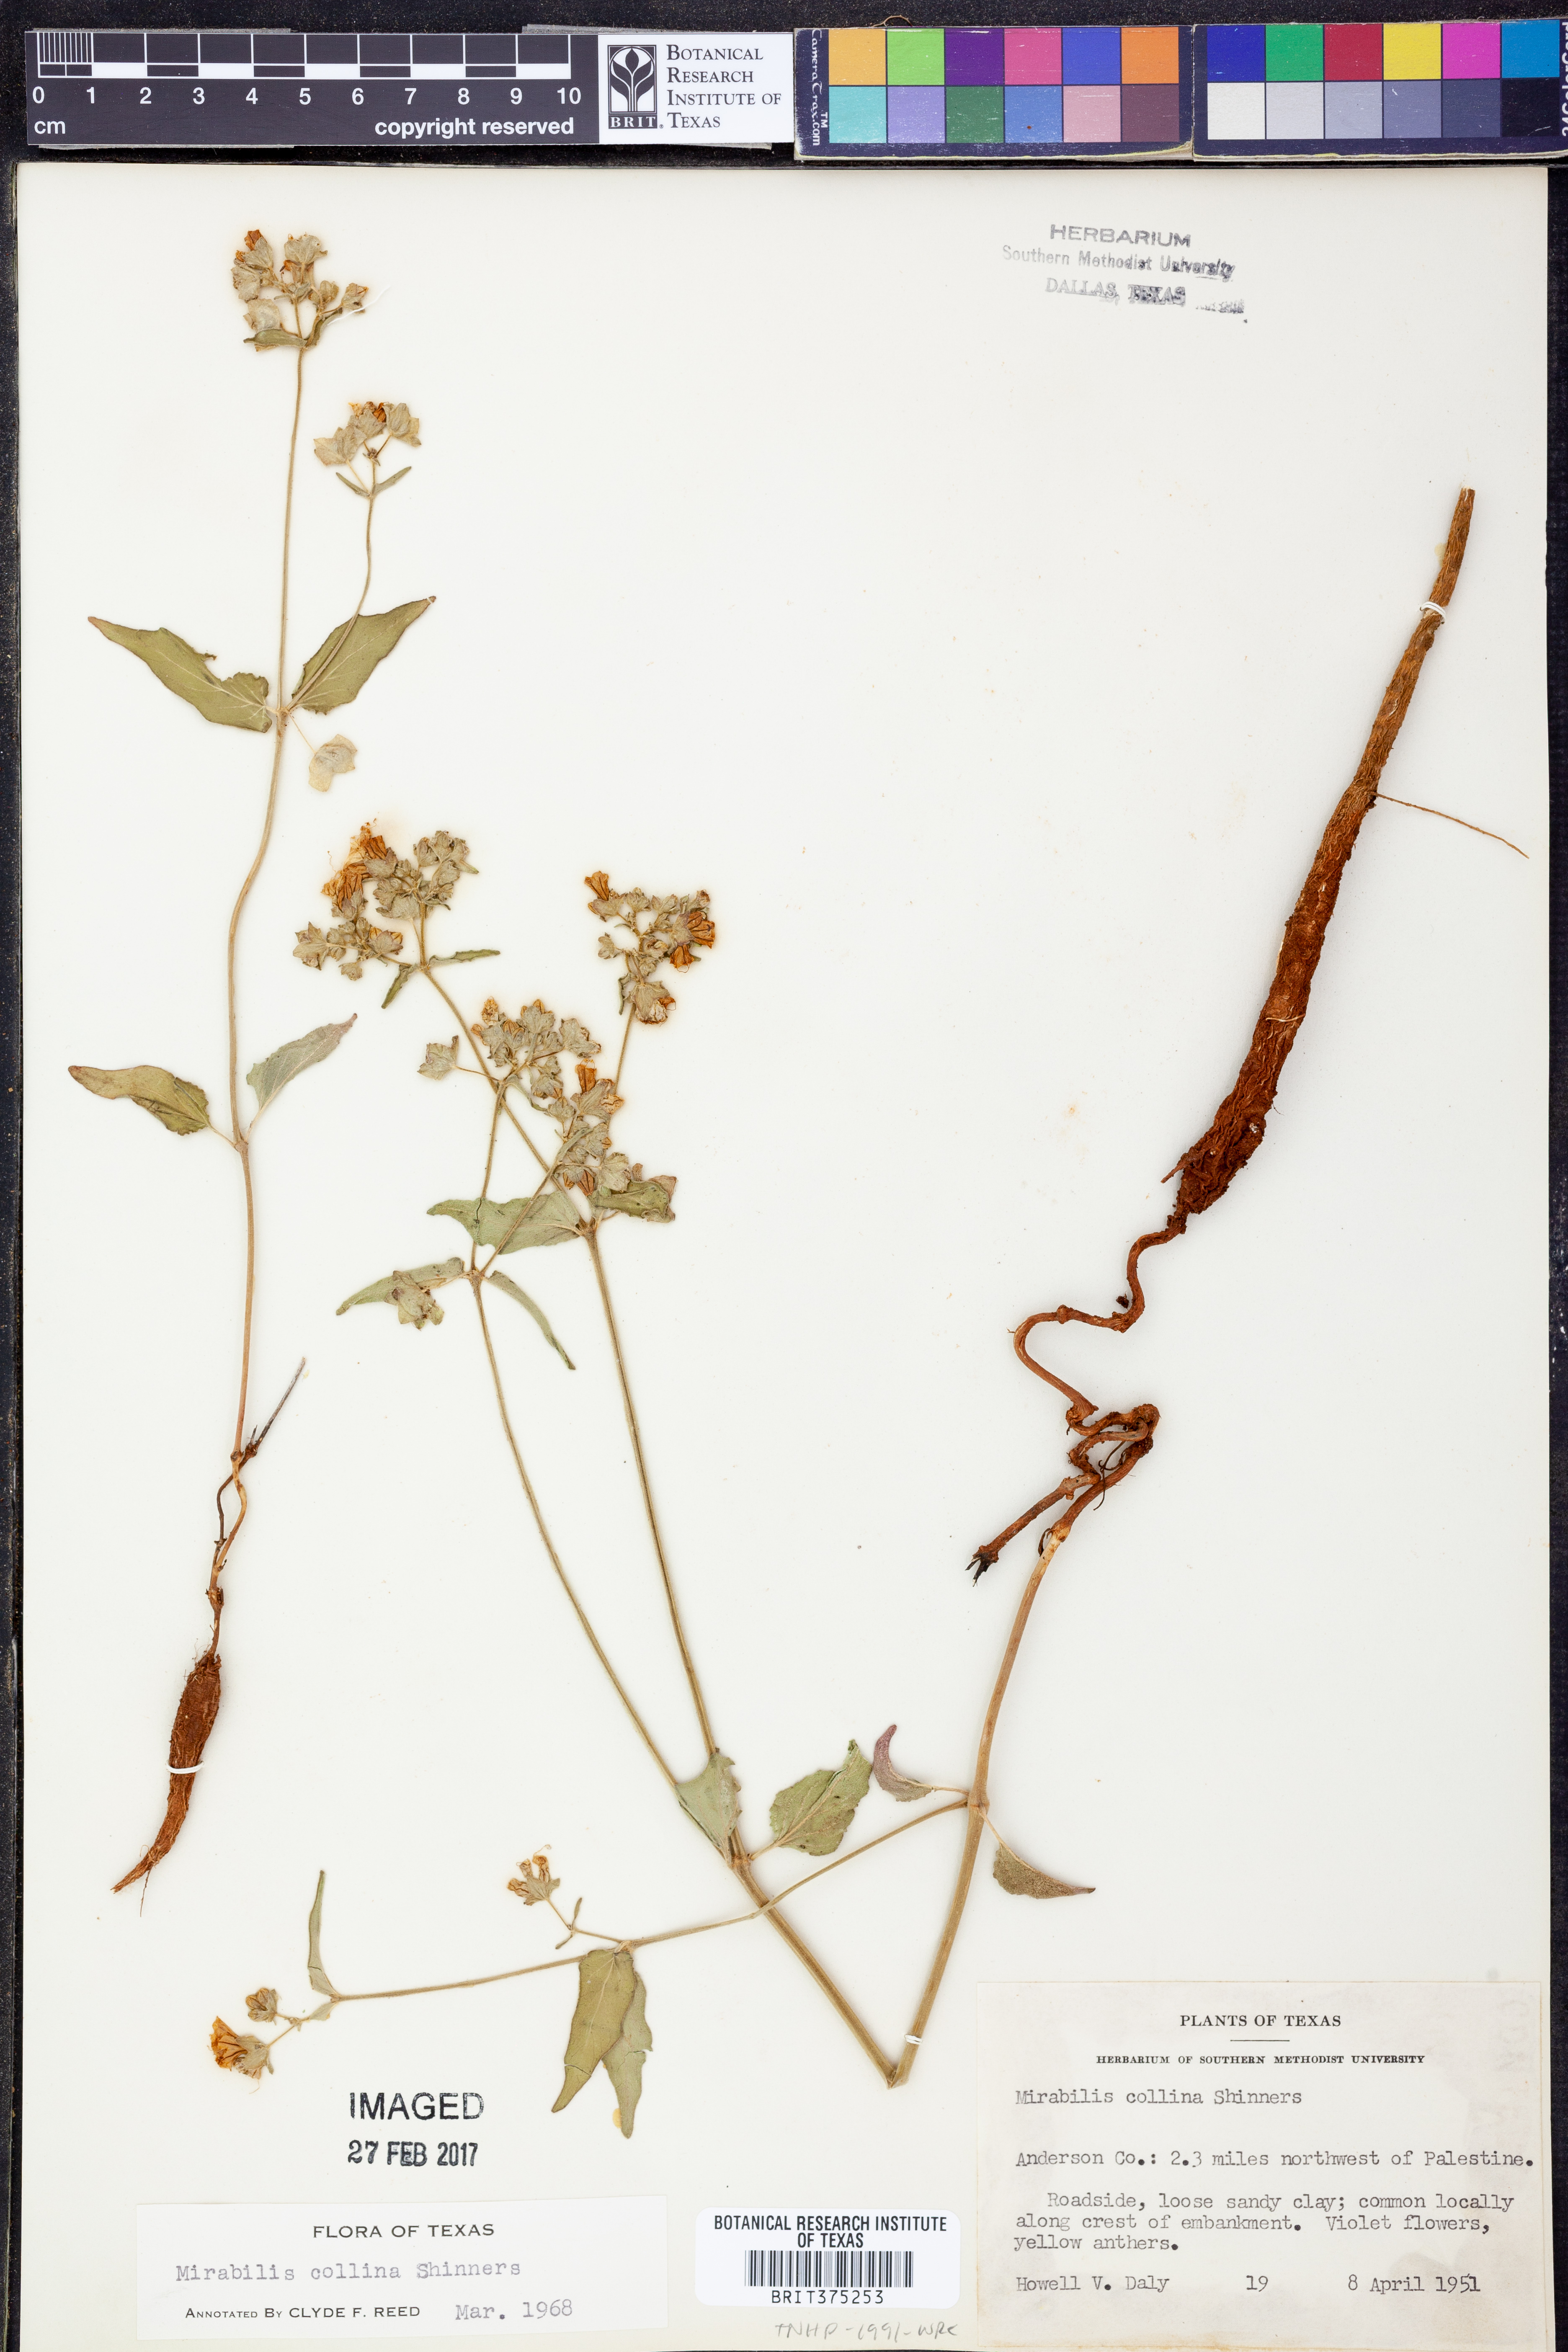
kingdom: Plantae
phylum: Tracheophyta
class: Magnoliopsida
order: Caryophyllales
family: Nyctaginaceae
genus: Mirabilis
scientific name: Mirabilis collina
